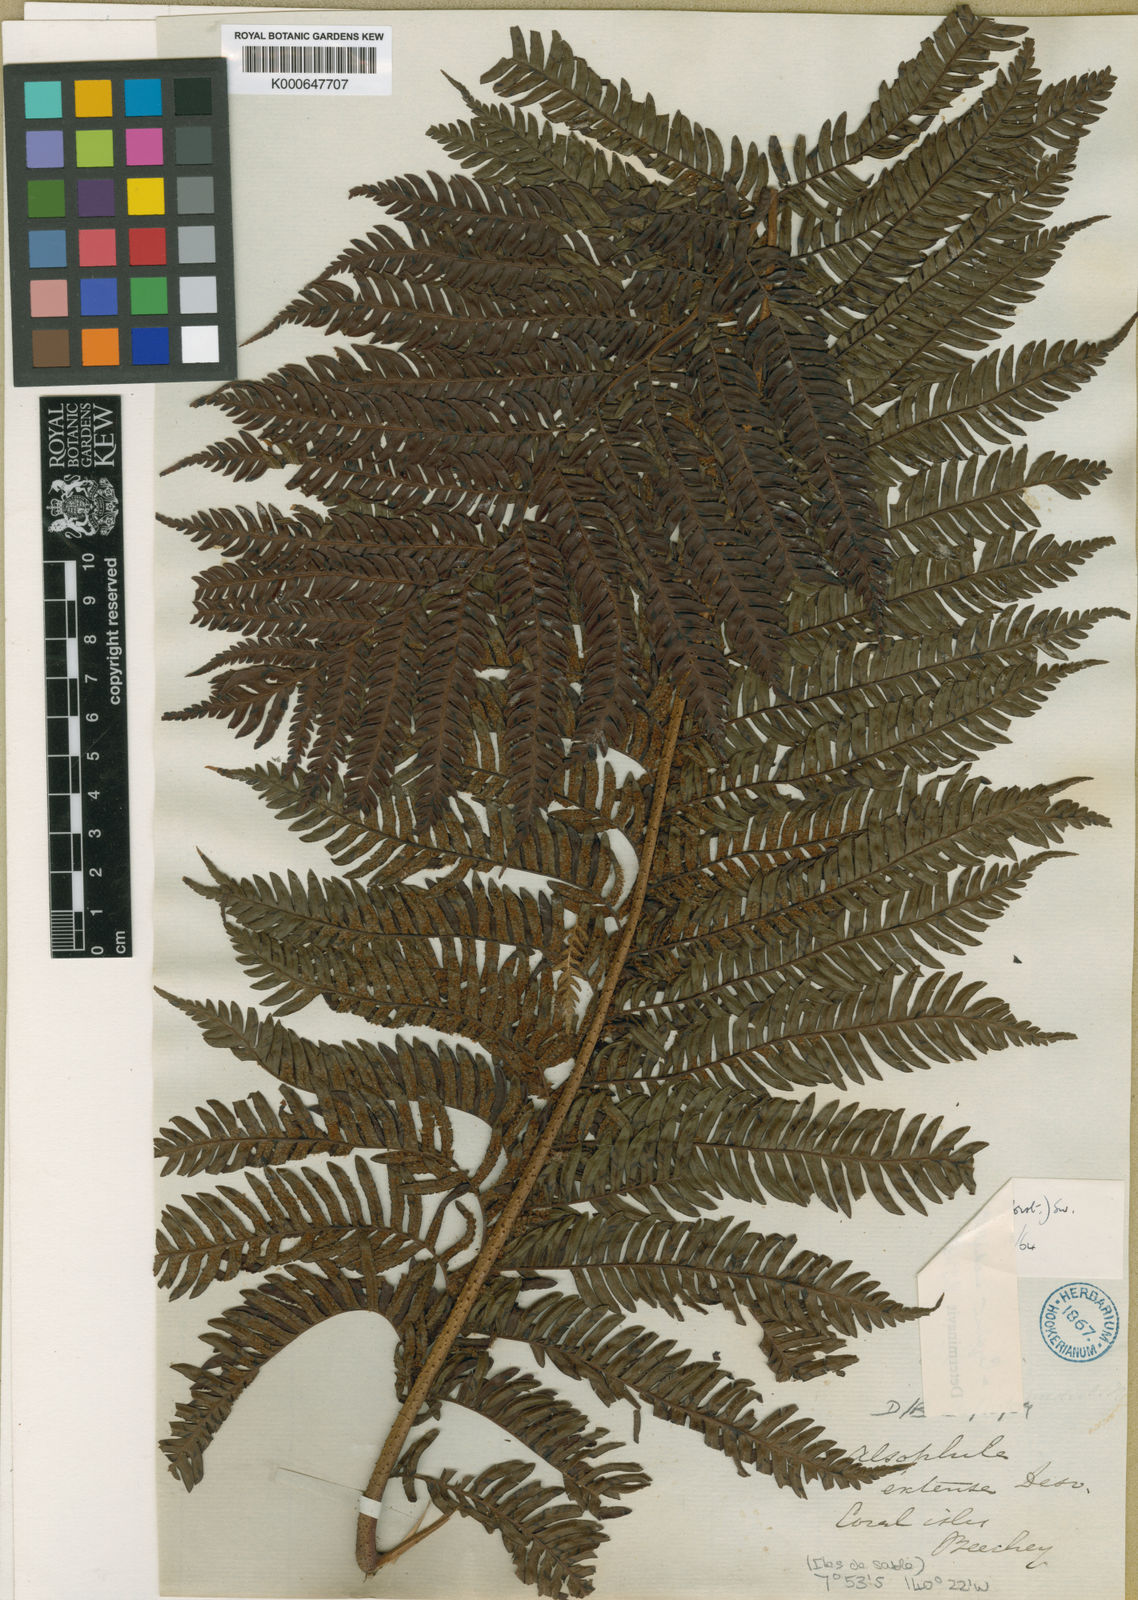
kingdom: Plantae
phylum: Tracheophyta
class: Polypodiopsida
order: Cyatheales
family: Cyatheaceae
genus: Sphaeropteris
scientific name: Sphaeropteris medullaris
